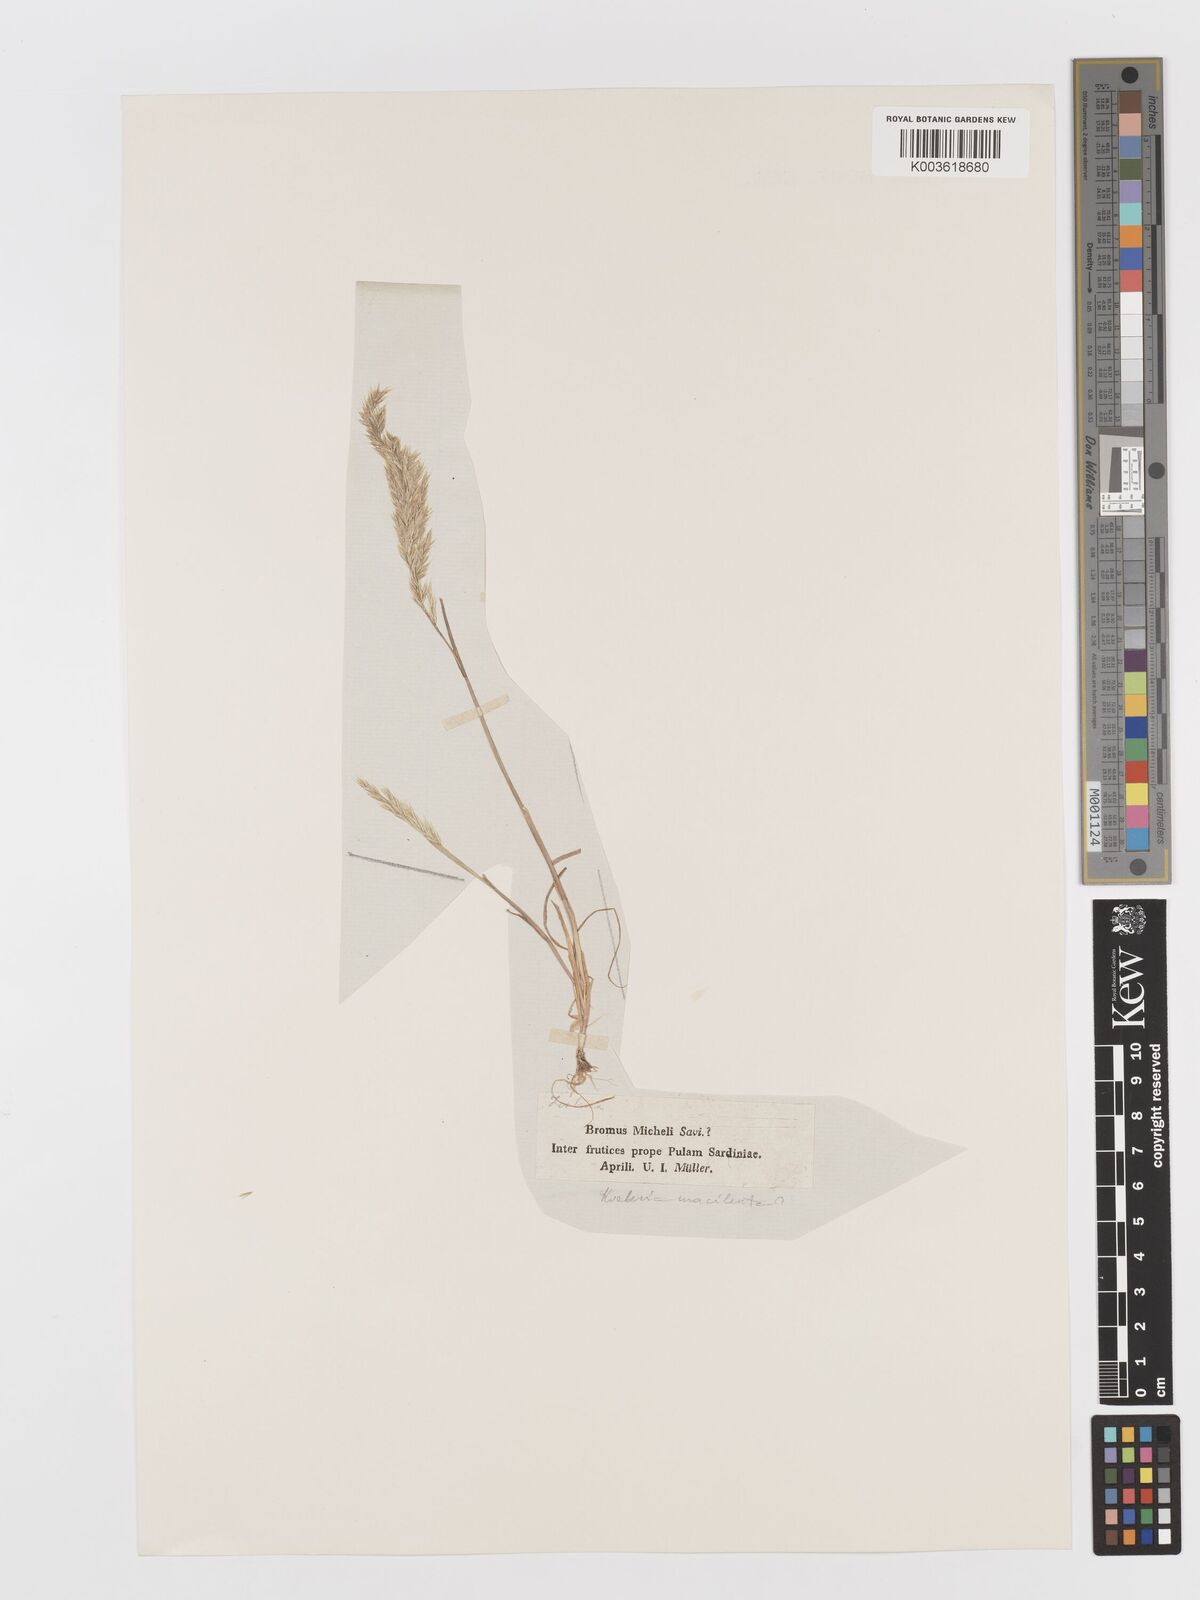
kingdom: Plantae
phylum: Tracheophyta
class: Liliopsida
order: Poales
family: Poaceae
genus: Avellinia
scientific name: Avellinia festucoides
